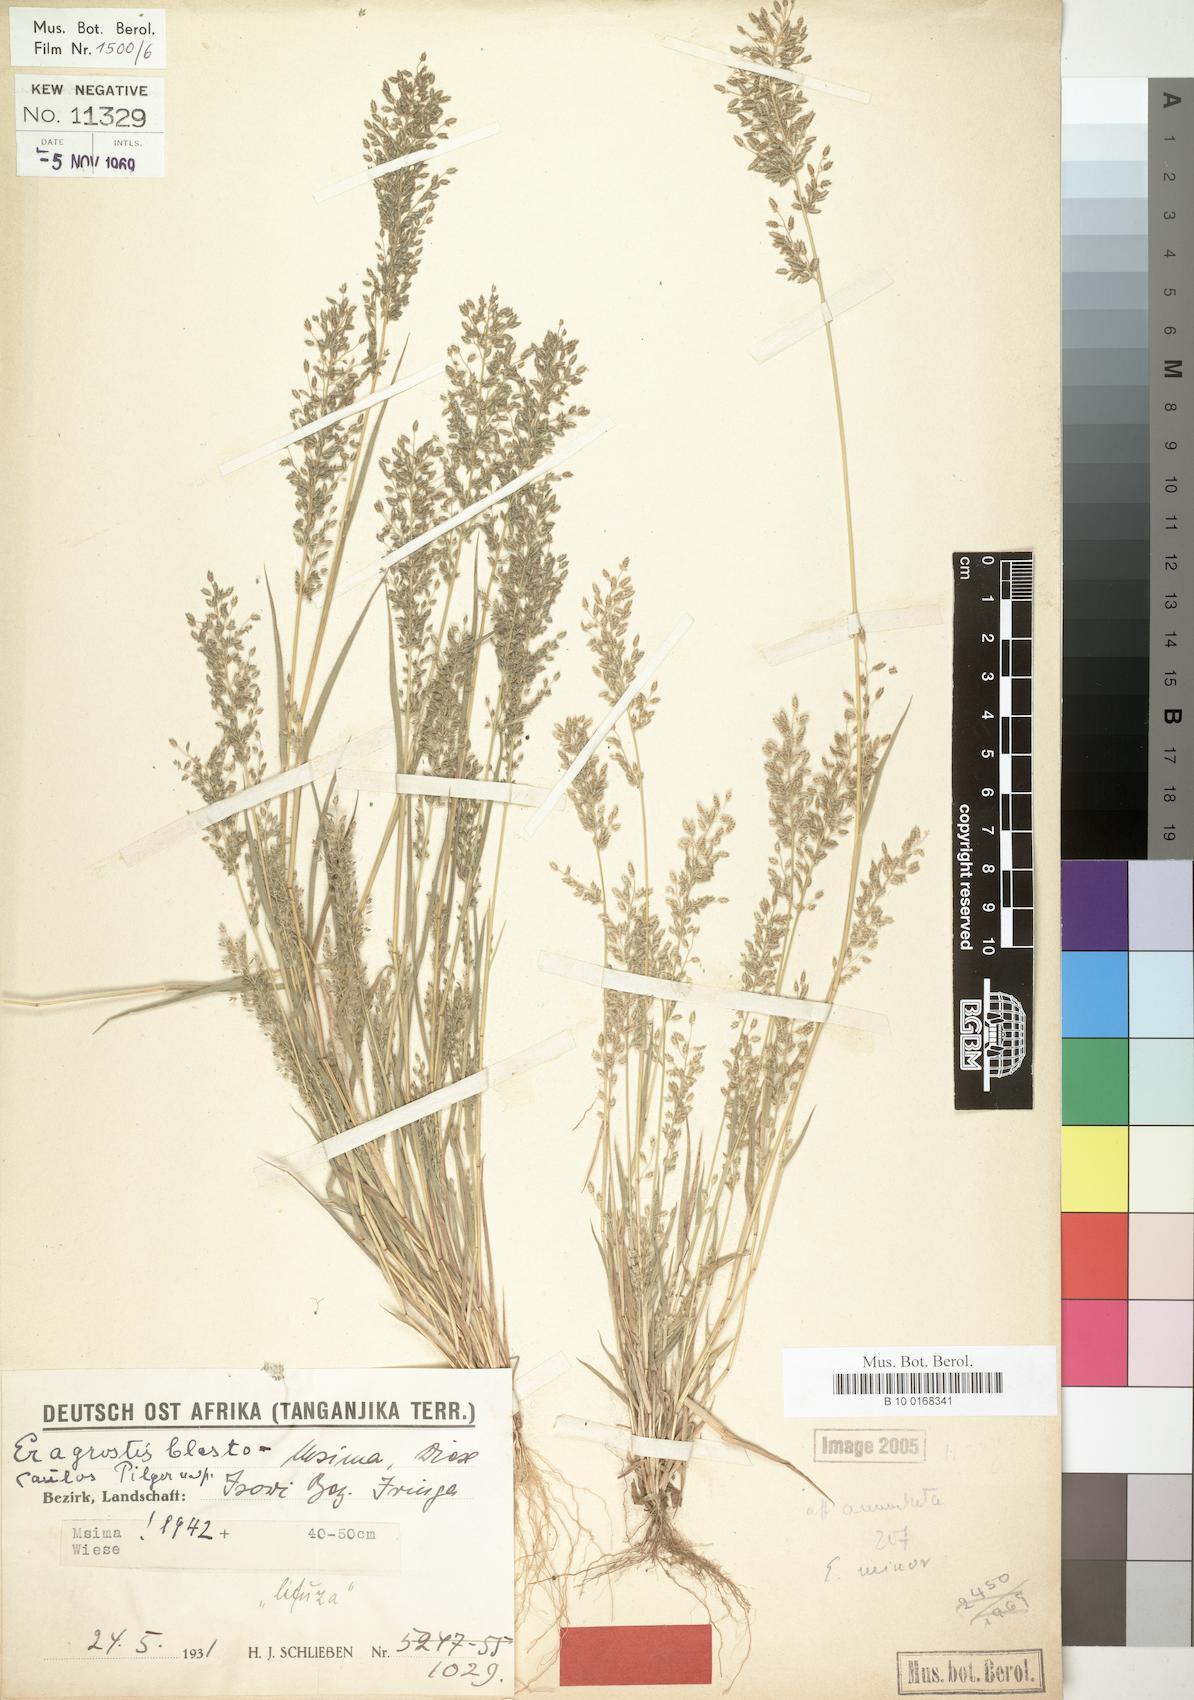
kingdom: Plantae
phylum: Tracheophyta
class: Liliopsida
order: Poales
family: Poaceae
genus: Eragrostis
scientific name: Eragrostis schweinfurthii
